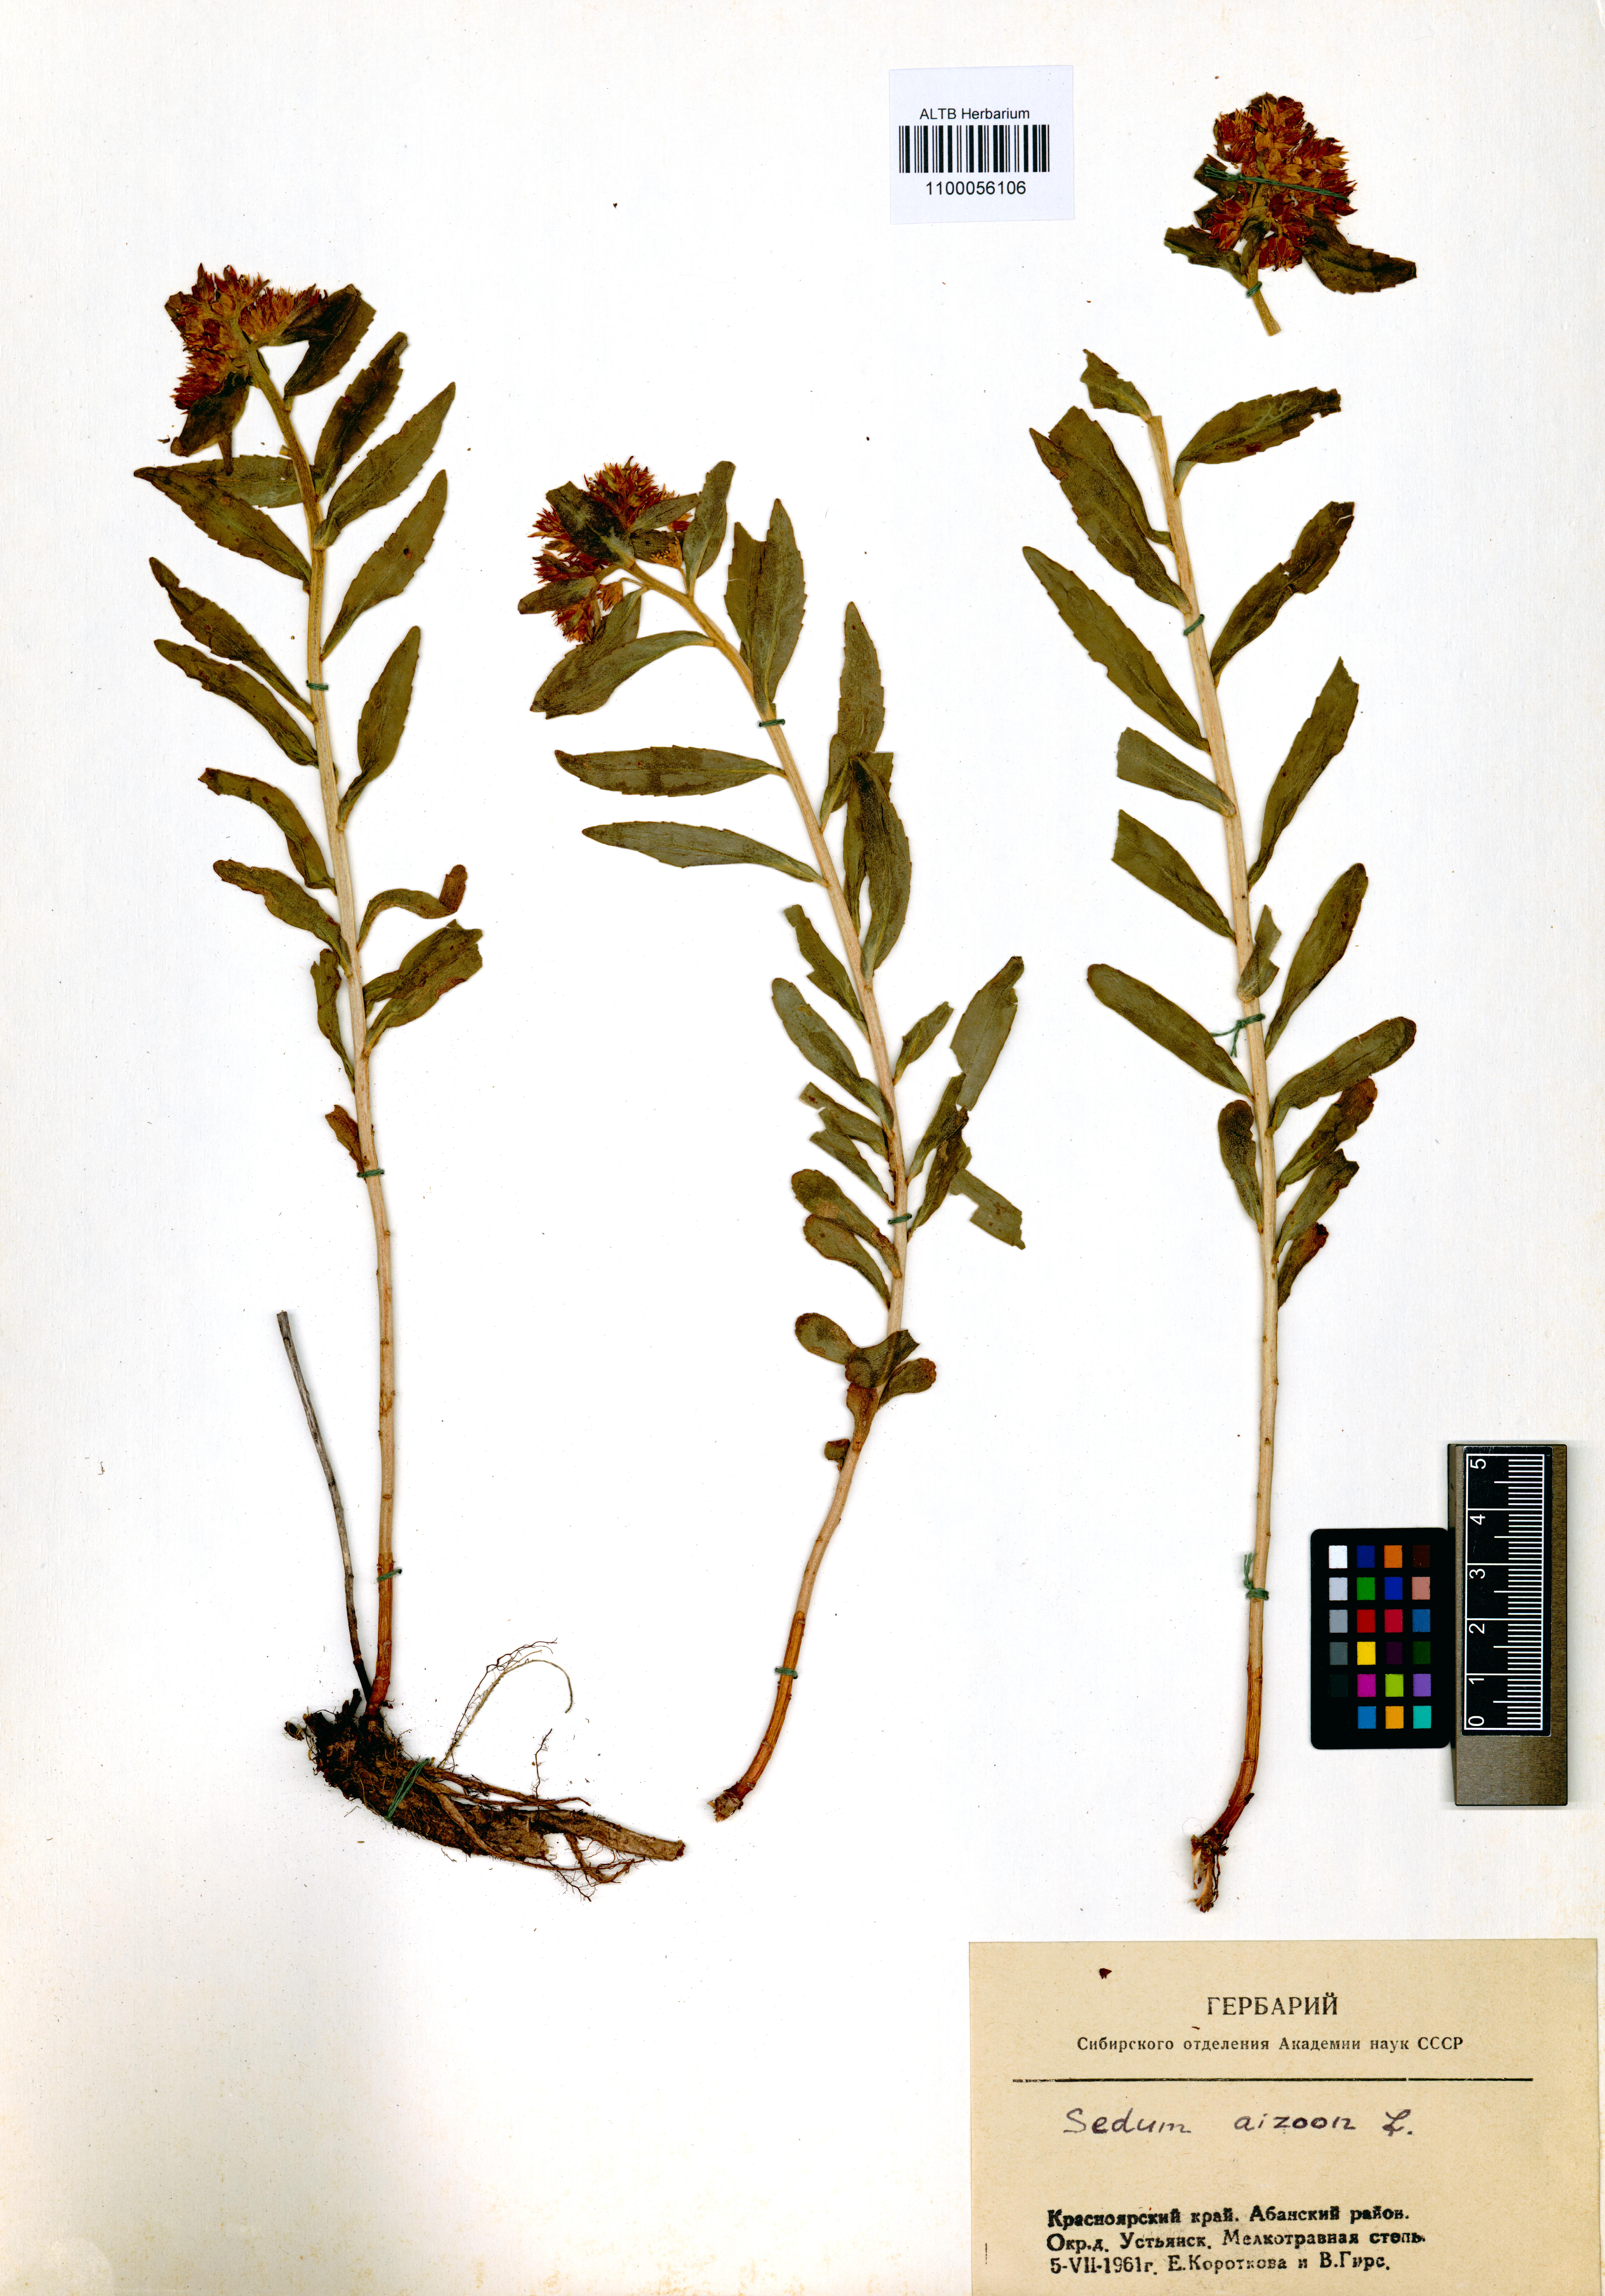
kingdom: Plantae
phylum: Tracheophyta
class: Magnoliopsida
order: Saxifragales
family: Crassulaceae
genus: Phedimus
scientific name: Phedimus aizoon
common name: Orpin aizoon
